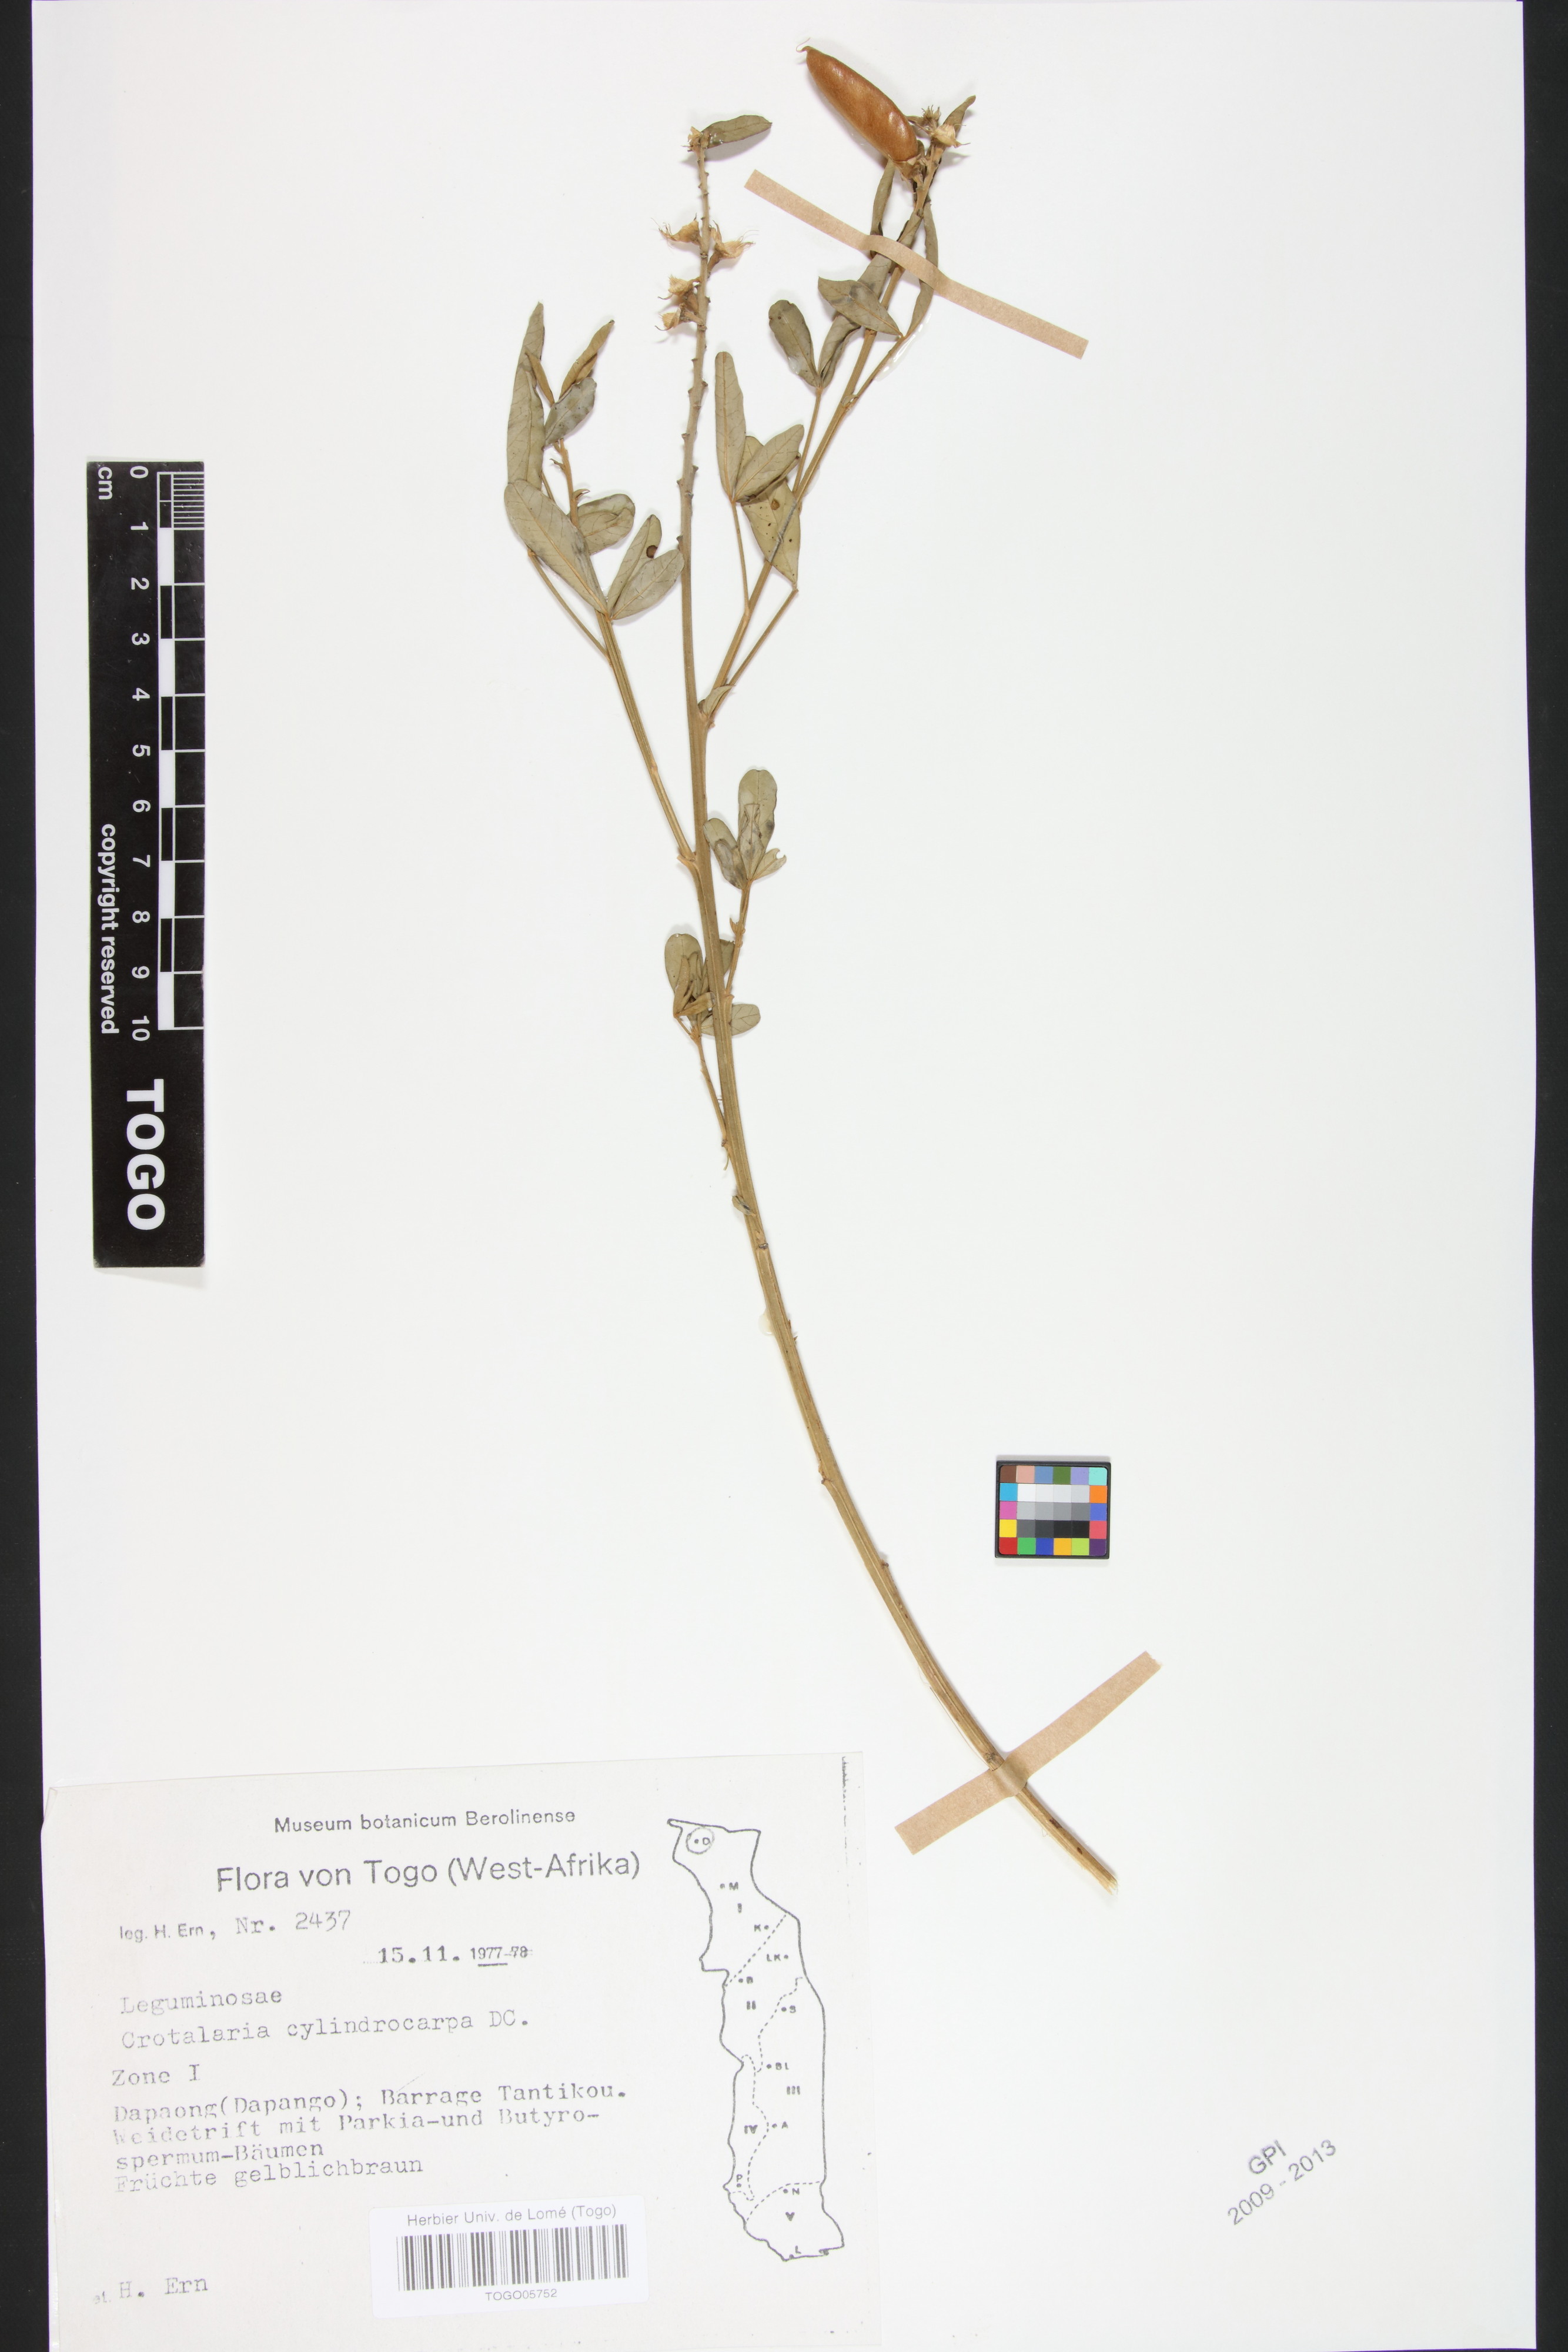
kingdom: Plantae
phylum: Tracheophyta
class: Magnoliopsida
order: Fabales
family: Fabaceae
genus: Crotalaria
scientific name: Crotalaria cylindrocarpa
